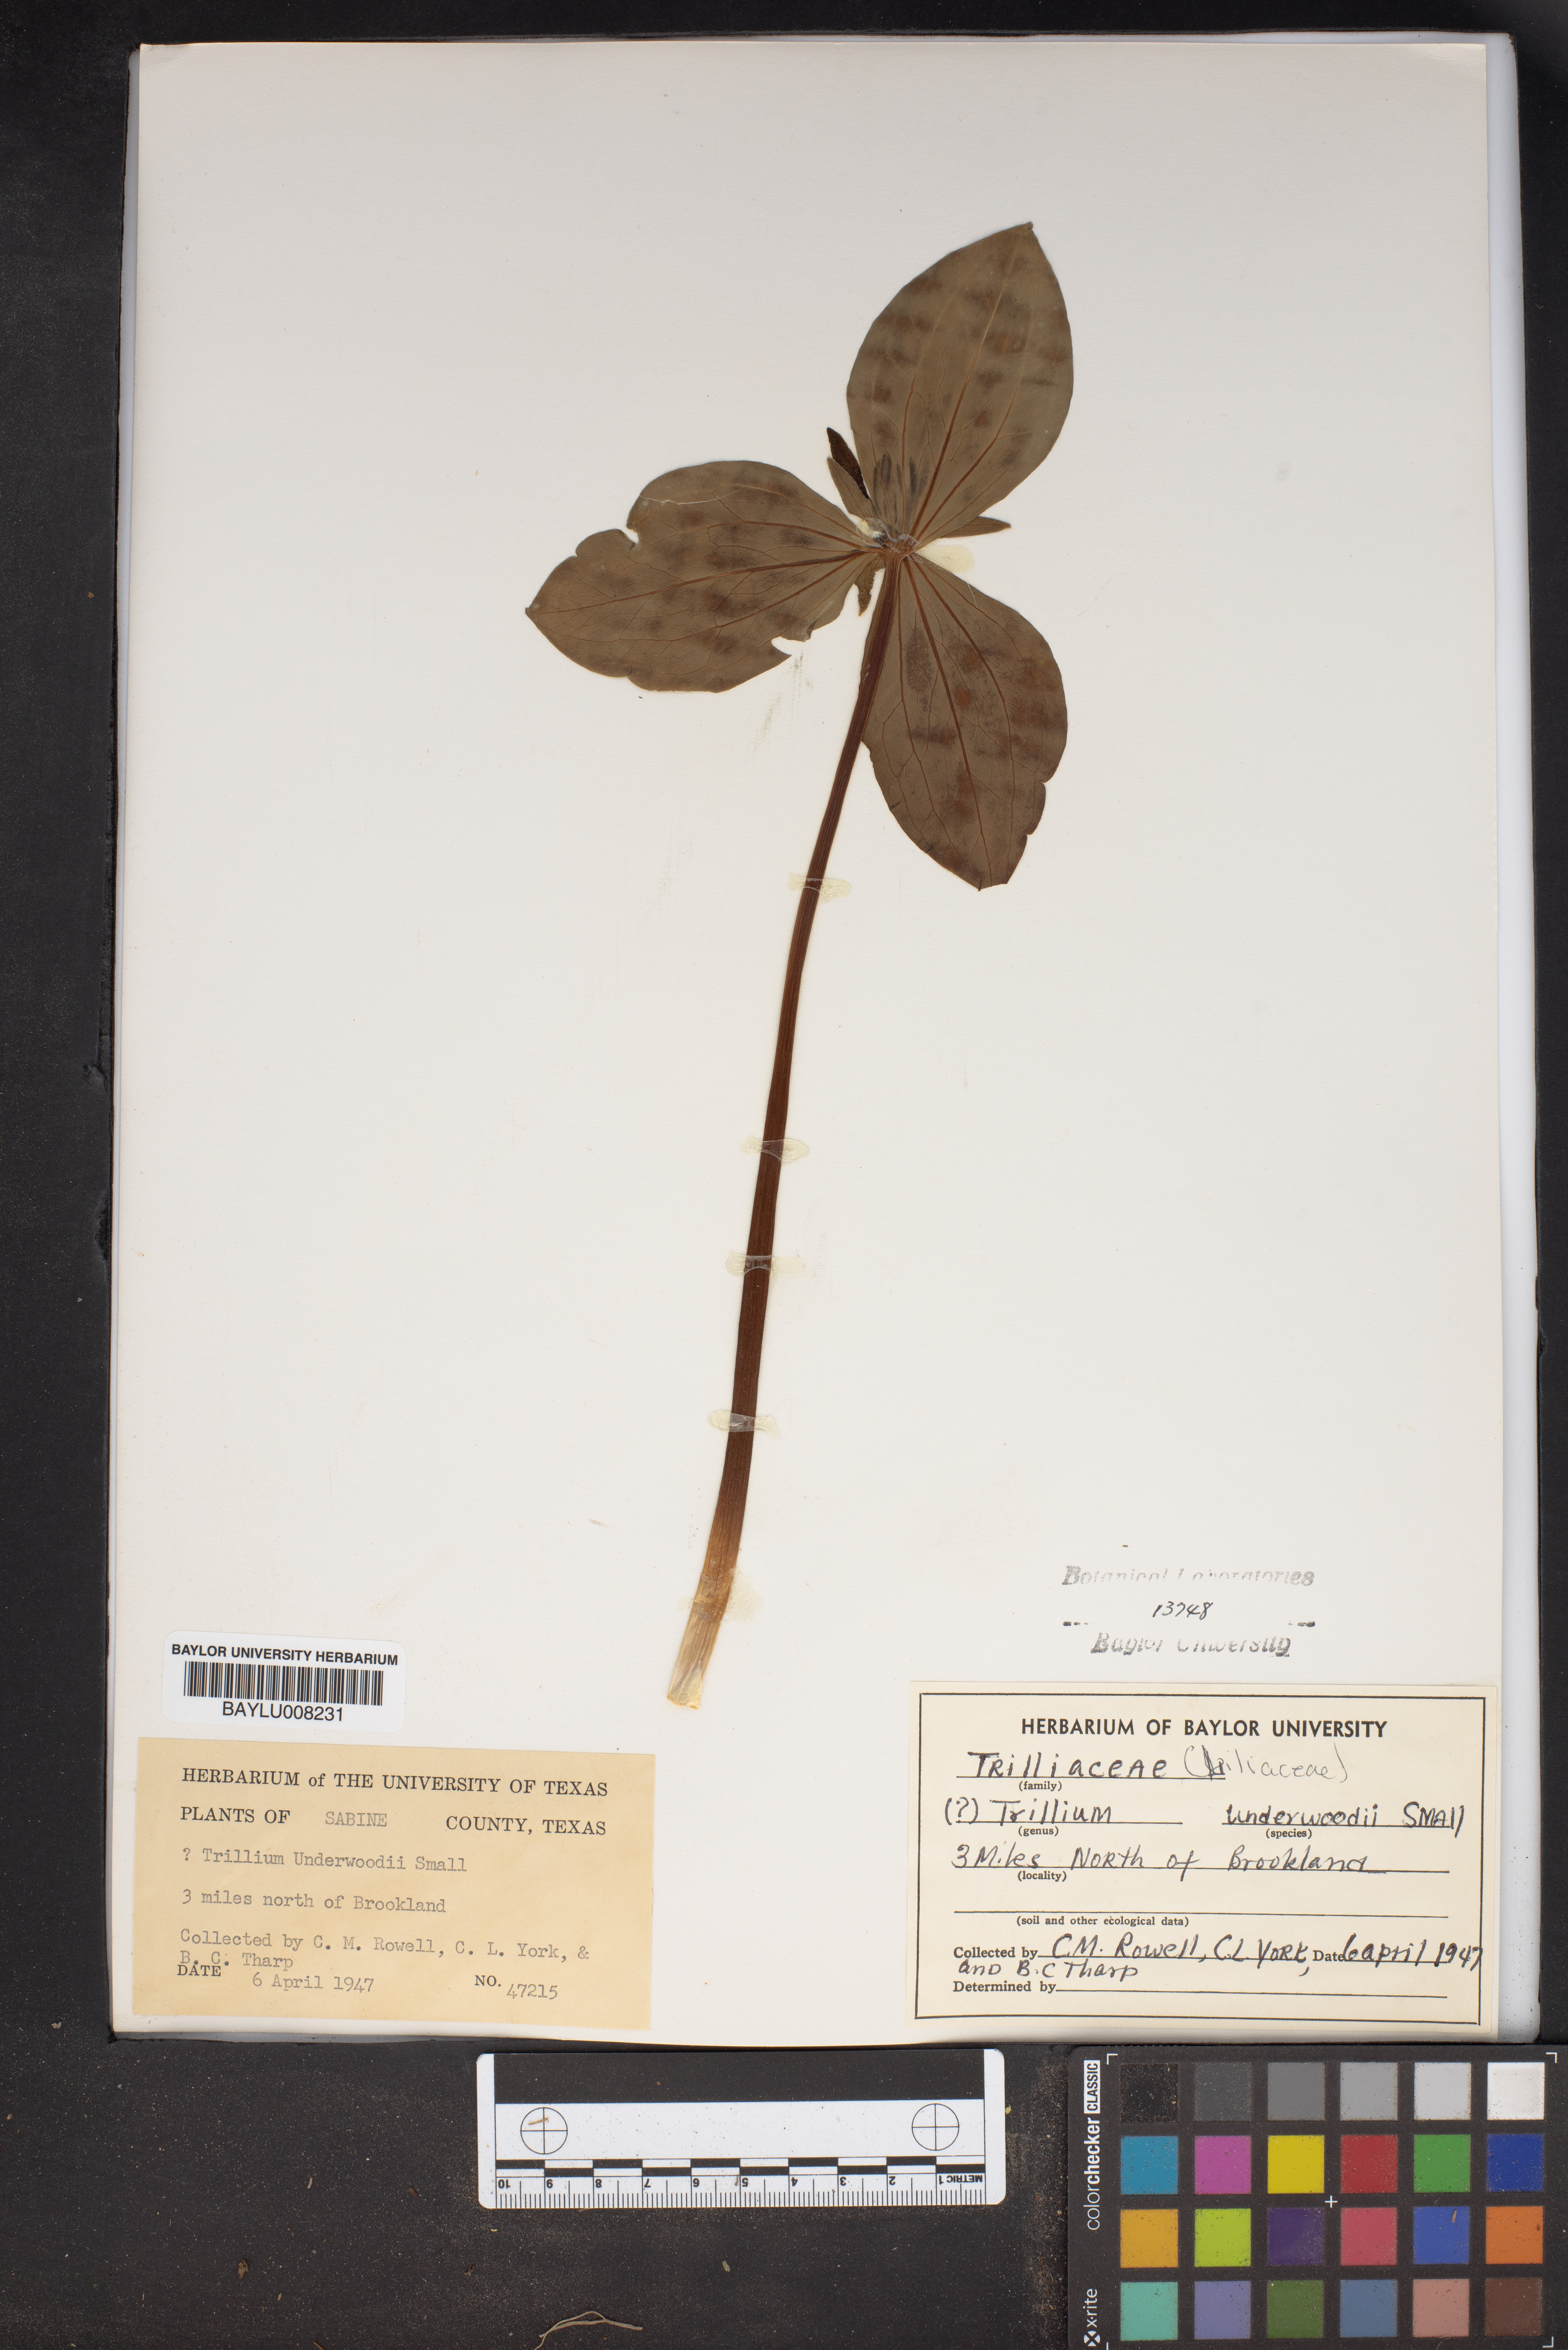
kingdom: Plantae
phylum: Tracheophyta
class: Liliopsida
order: Liliales
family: Melanthiaceae
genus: Trillium
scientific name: Trillium underwoodii
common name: Longbract wakerobin
